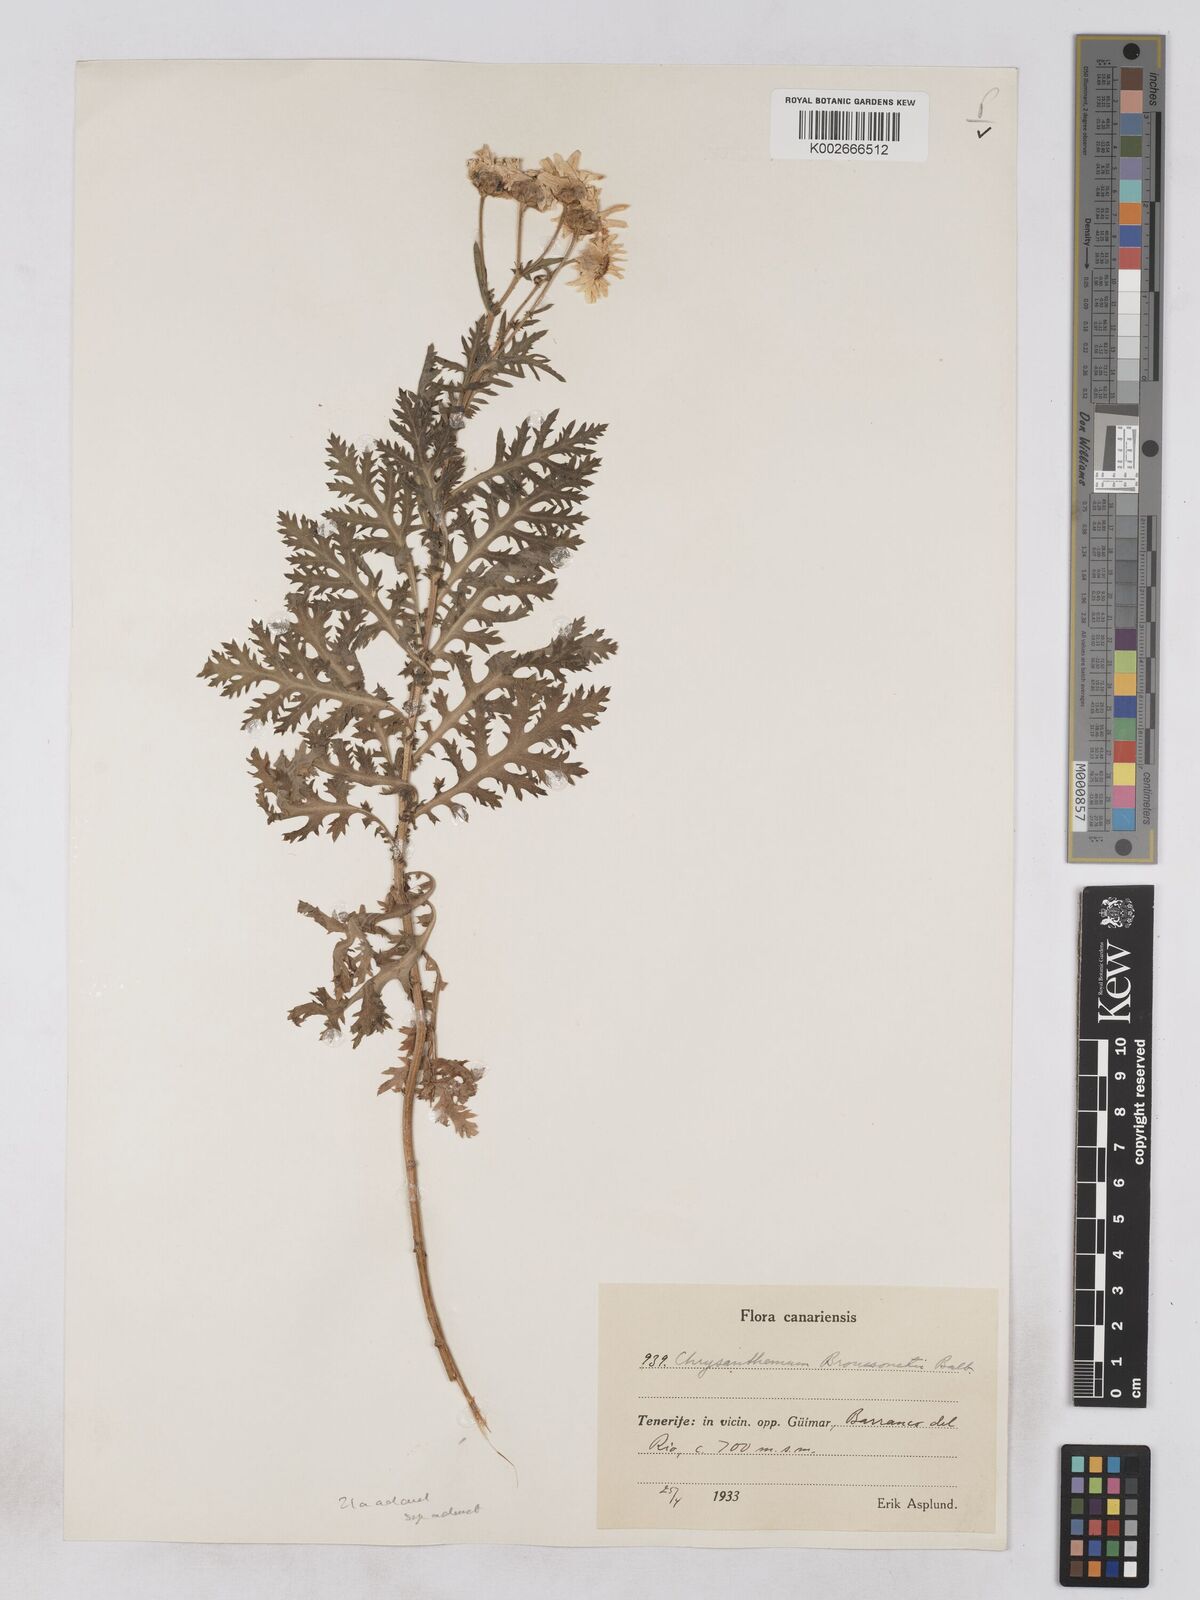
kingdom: Plantae
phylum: Tracheophyta
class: Magnoliopsida
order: Asterales
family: Asteraceae
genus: Argyranthemum
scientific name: Argyranthemum adauctum
